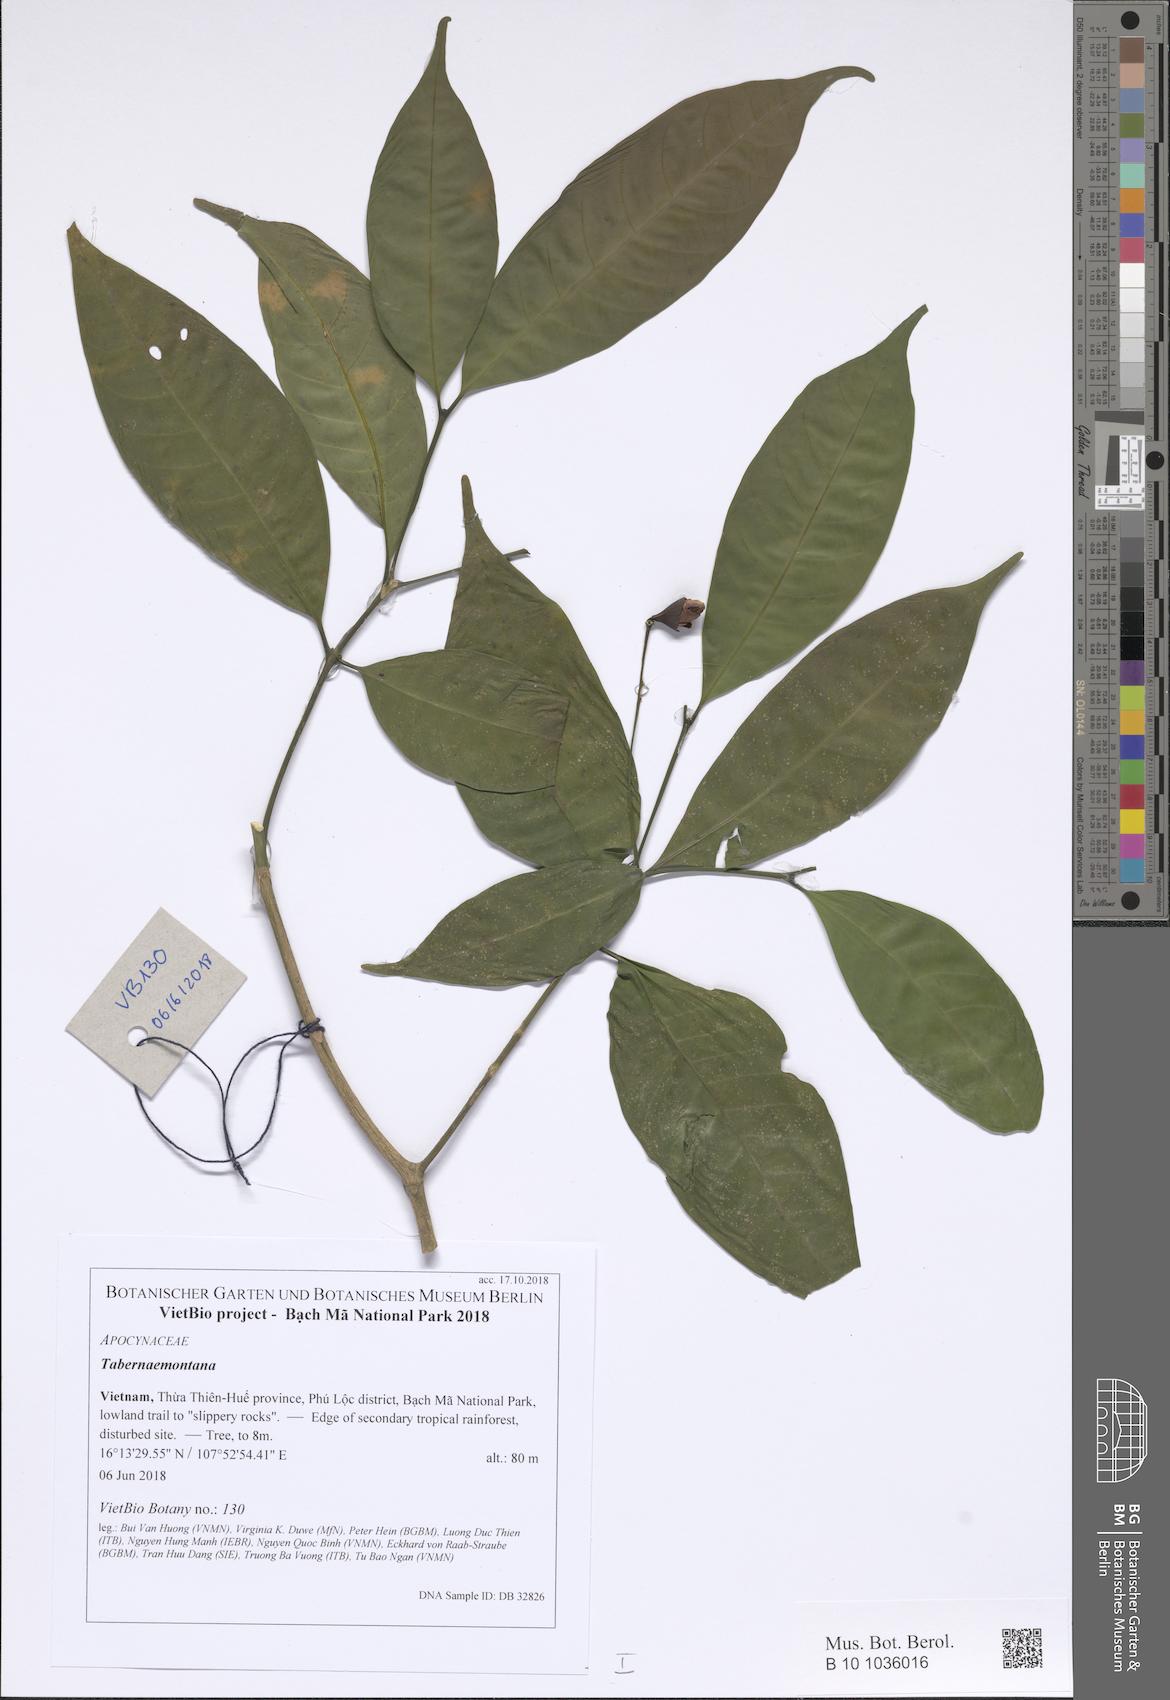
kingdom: Plantae
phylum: Tracheophyta
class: Magnoliopsida
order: Gentianales
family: Apocynaceae
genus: Tabernaemontana
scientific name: Tabernaemontana bovina
